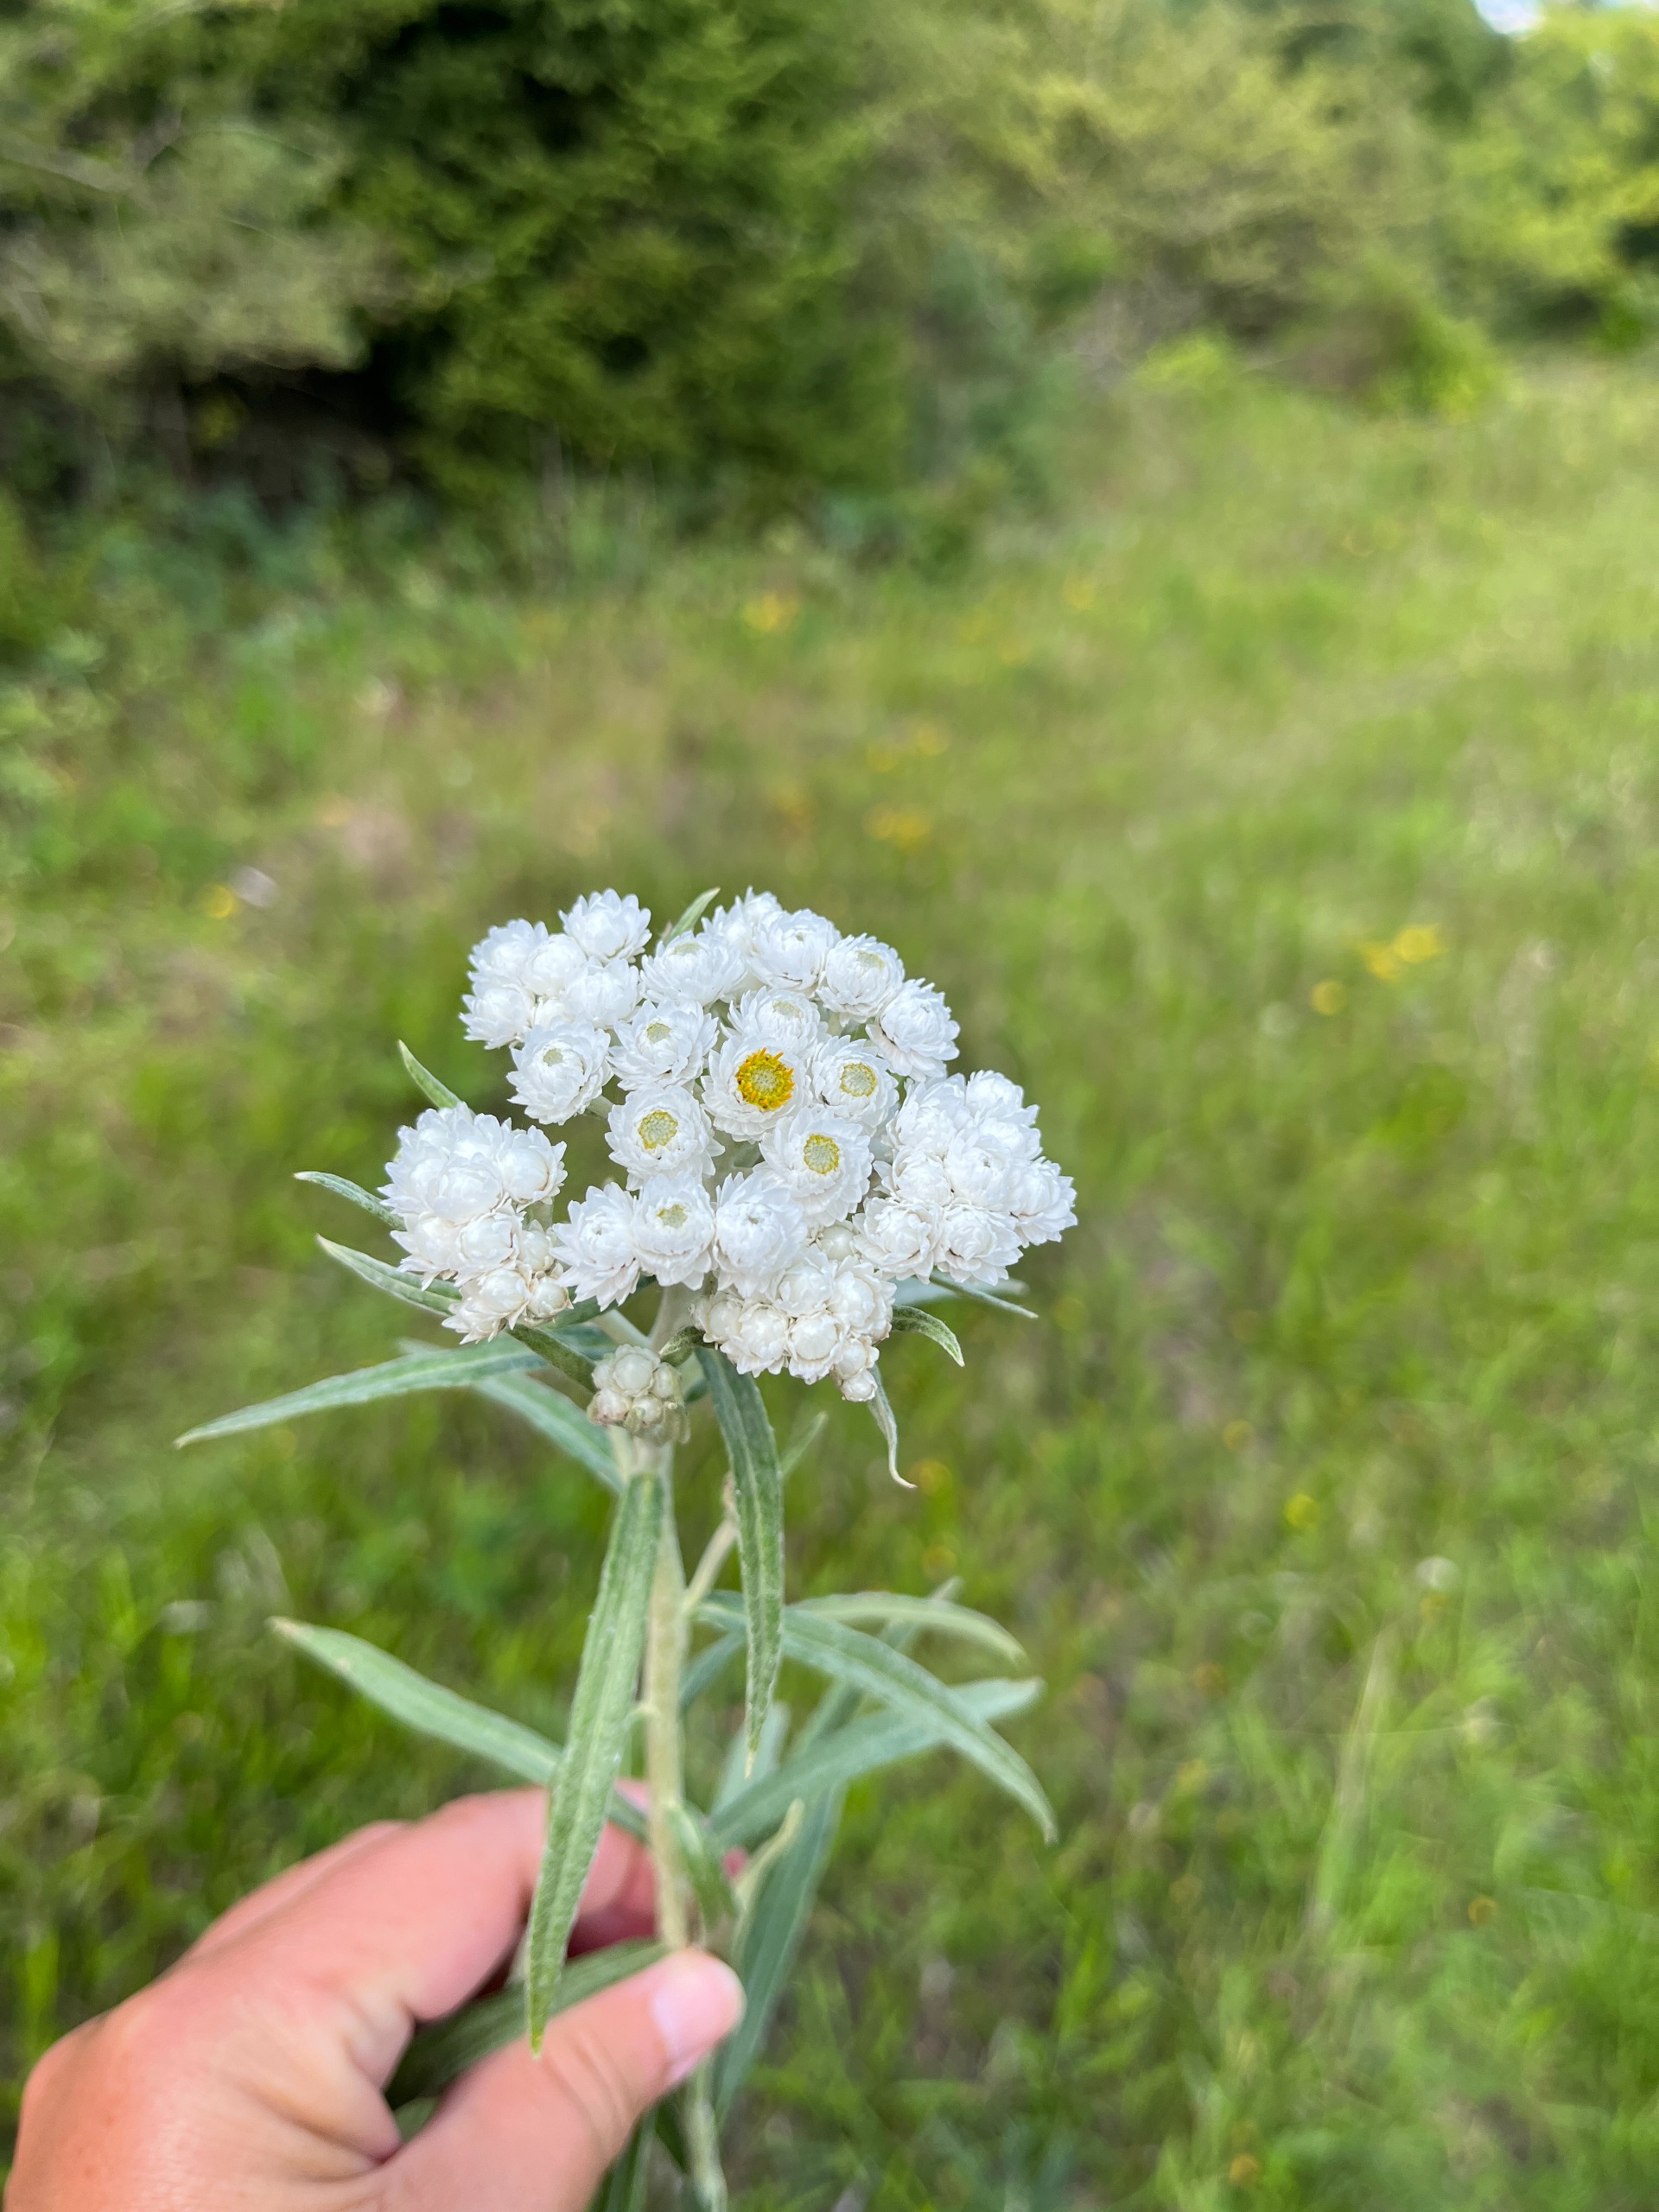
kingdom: Plantae
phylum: Tracheophyta
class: Magnoliopsida
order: Asterales
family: Asteraceae
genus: Anaphalis
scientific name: Anaphalis margaritacea
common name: Perlekurv
